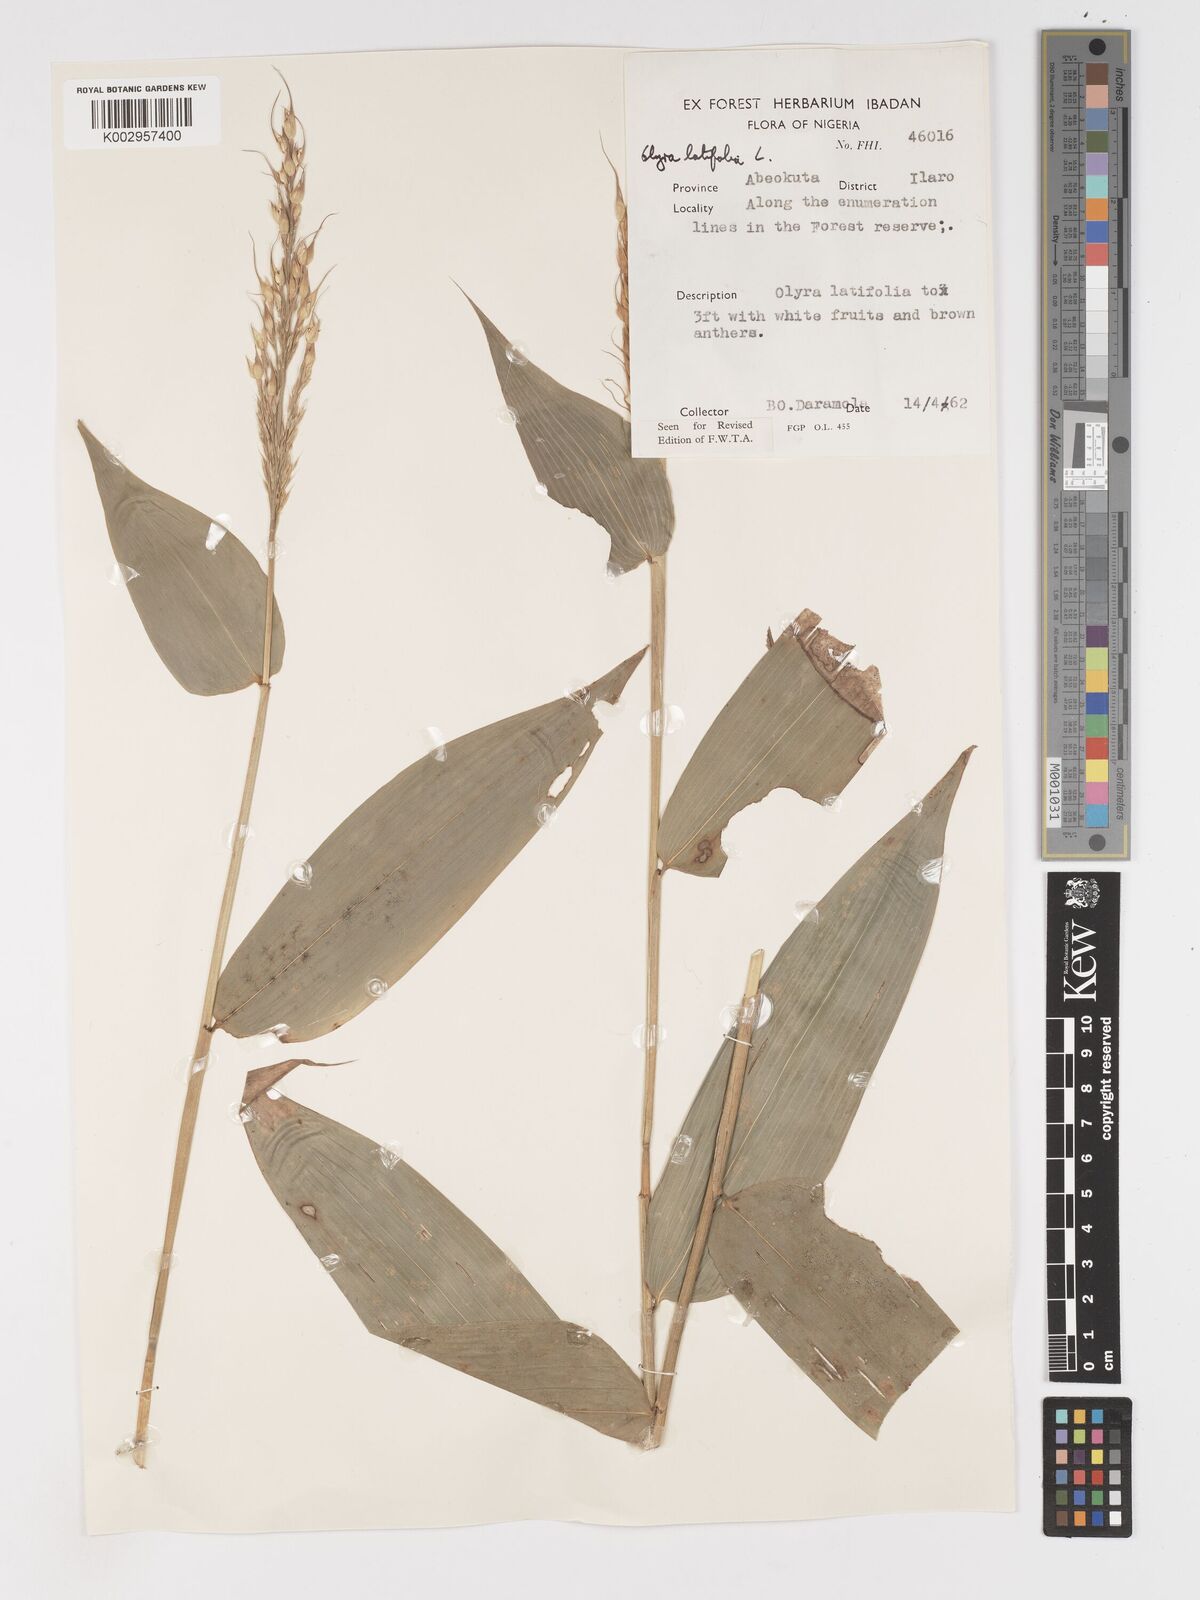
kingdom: Plantae
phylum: Tracheophyta
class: Liliopsida
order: Poales
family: Poaceae
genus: Olyra
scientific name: Olyra latifolia
